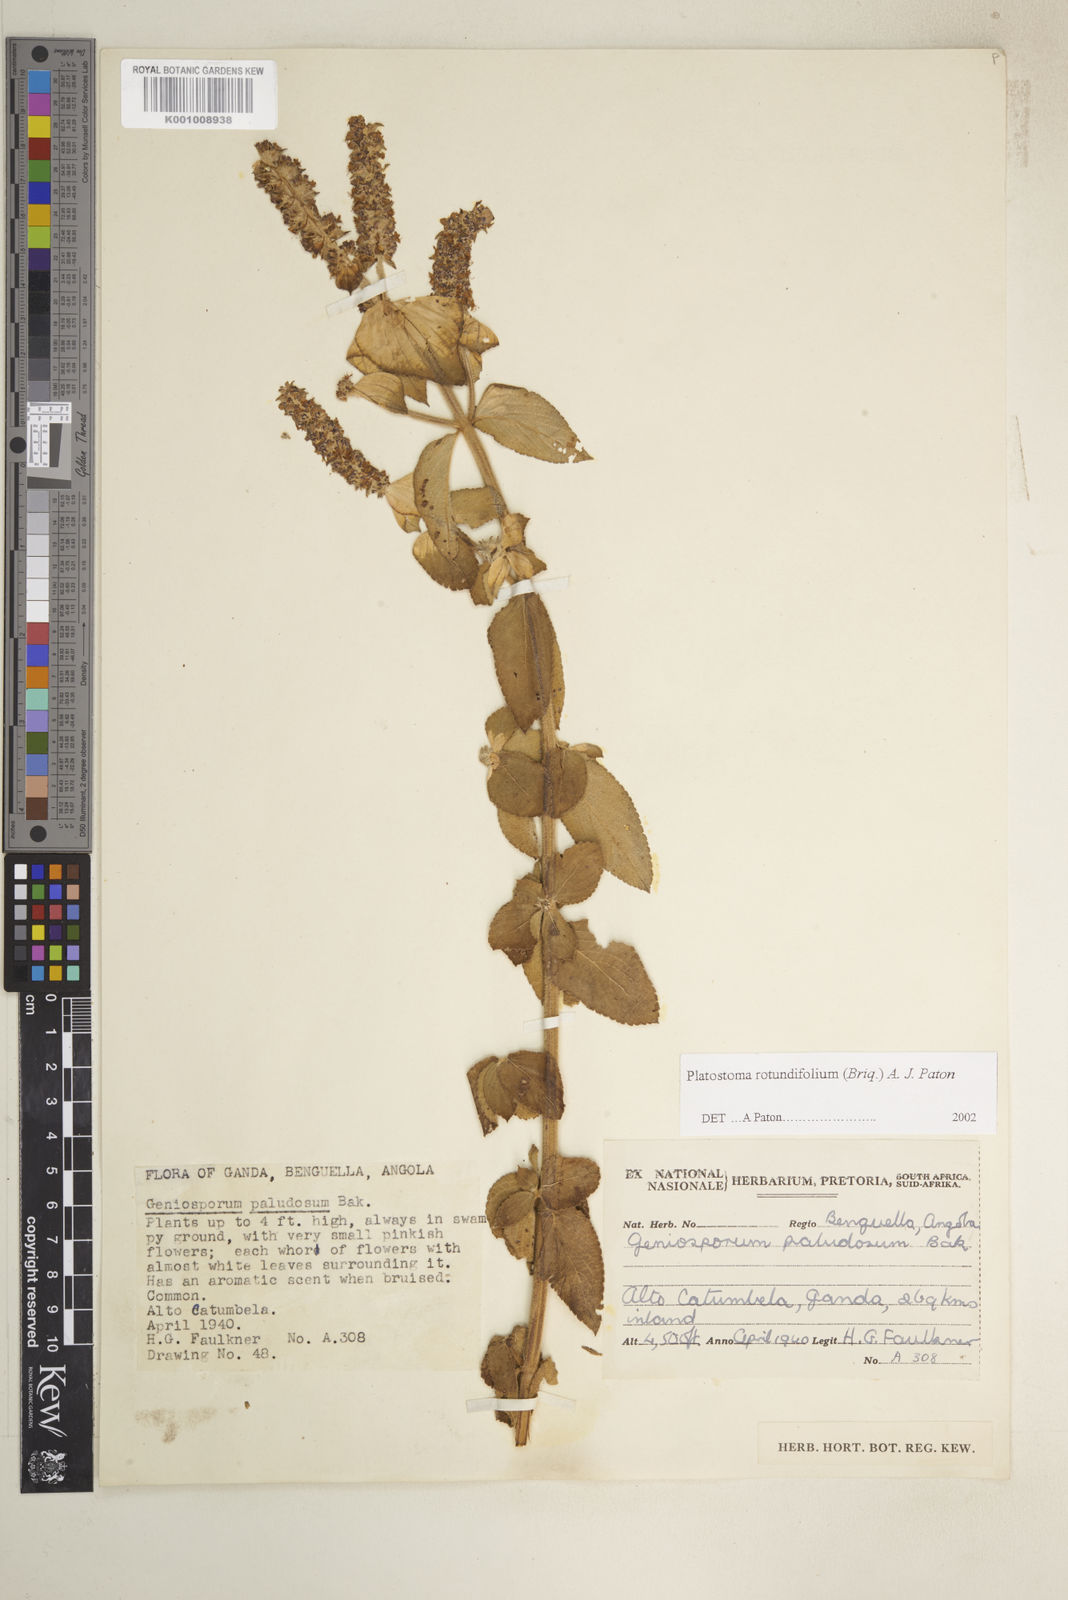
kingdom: Plantae
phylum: Tracheophyta
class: Magnoliopsida
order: Lamiales
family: Lamiaceae
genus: Platostoma
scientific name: Platostoma rotundifolium
